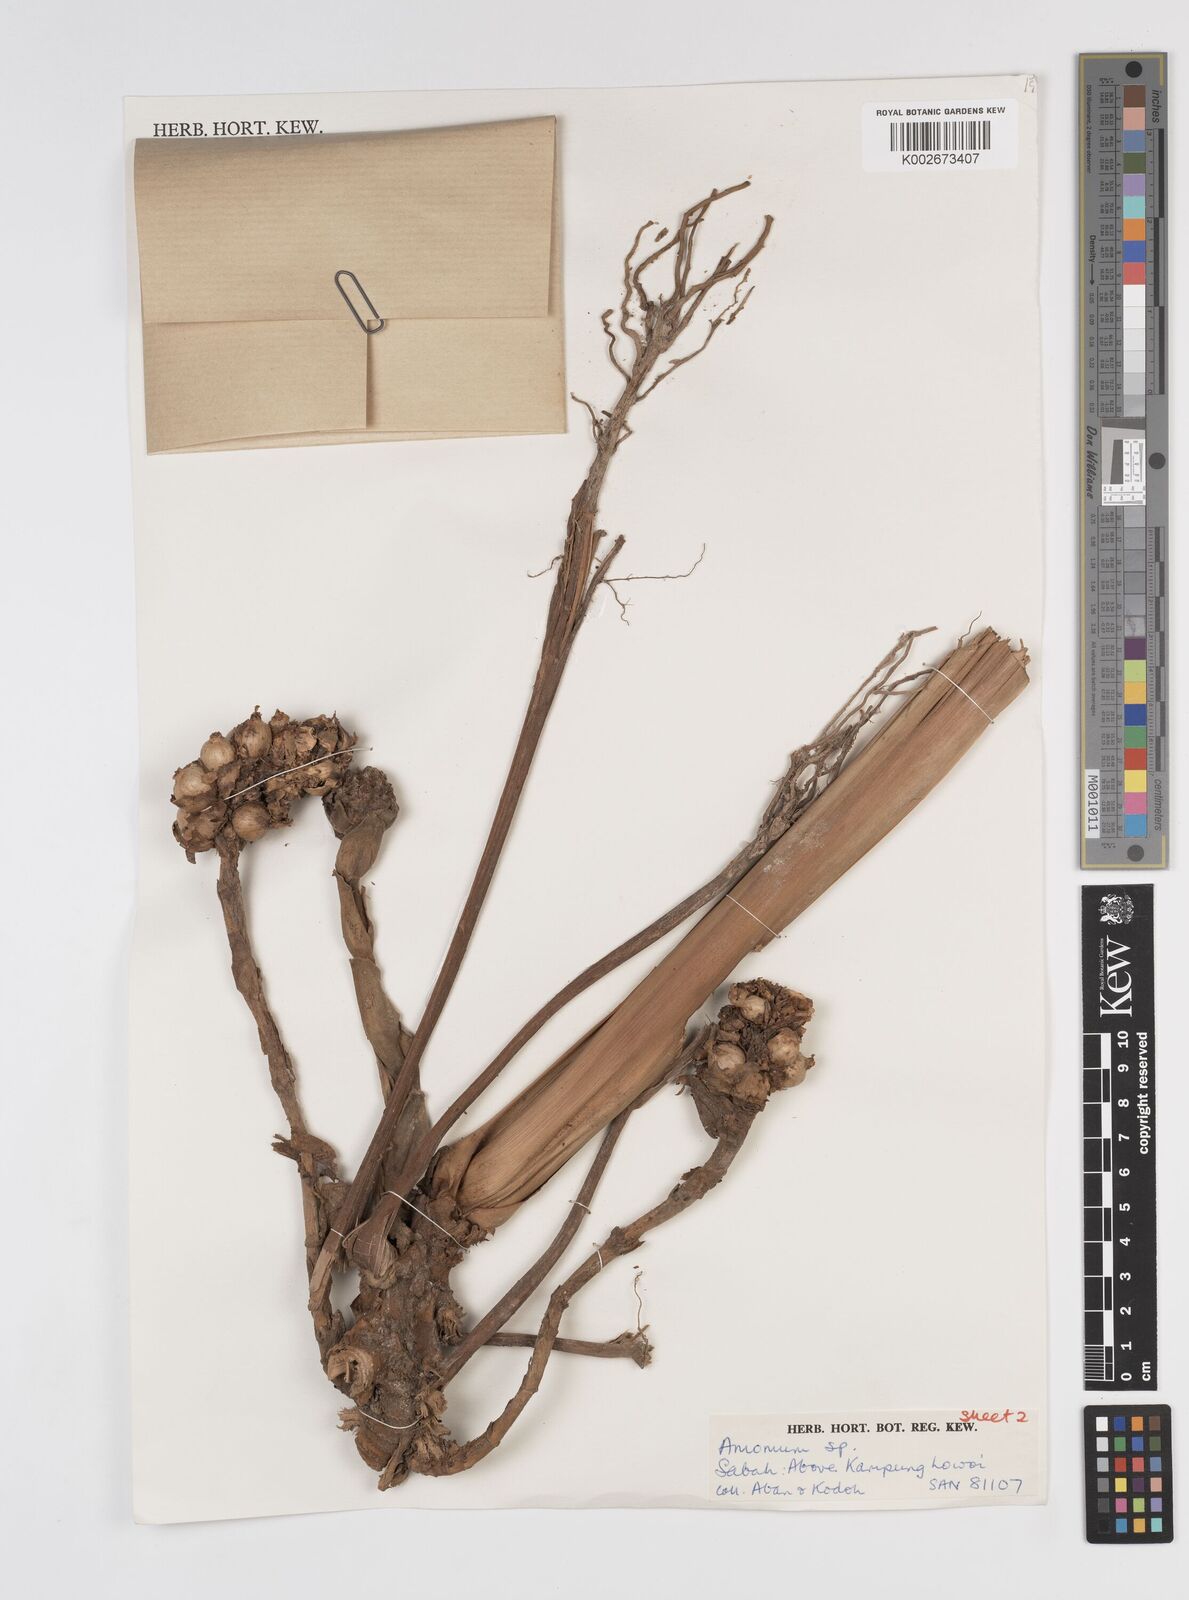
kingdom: Plantae
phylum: Tracheophyta
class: Liliopsida
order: Zingiberales
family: Zingiberaceae
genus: Conamomum
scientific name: Conamomum cylindrostachys
